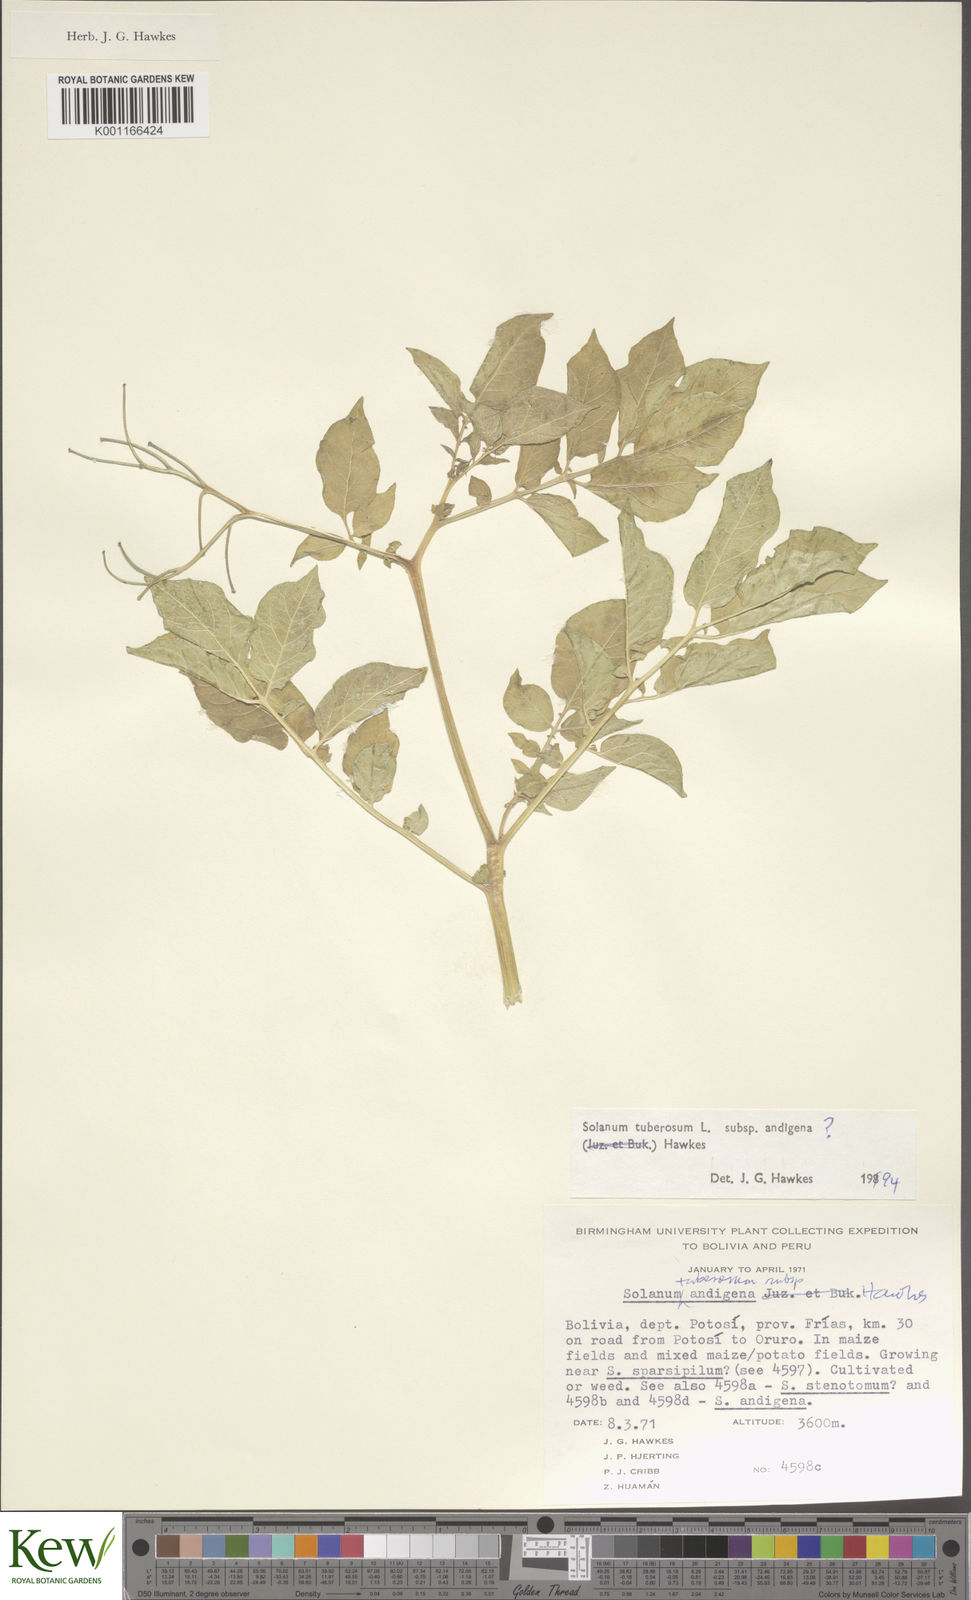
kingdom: Plantae
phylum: Tracheophyta
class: Magnoliopsida
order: Solanales
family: Solanaceae
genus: Solanum
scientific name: Solanum tuberosum
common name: Potato
